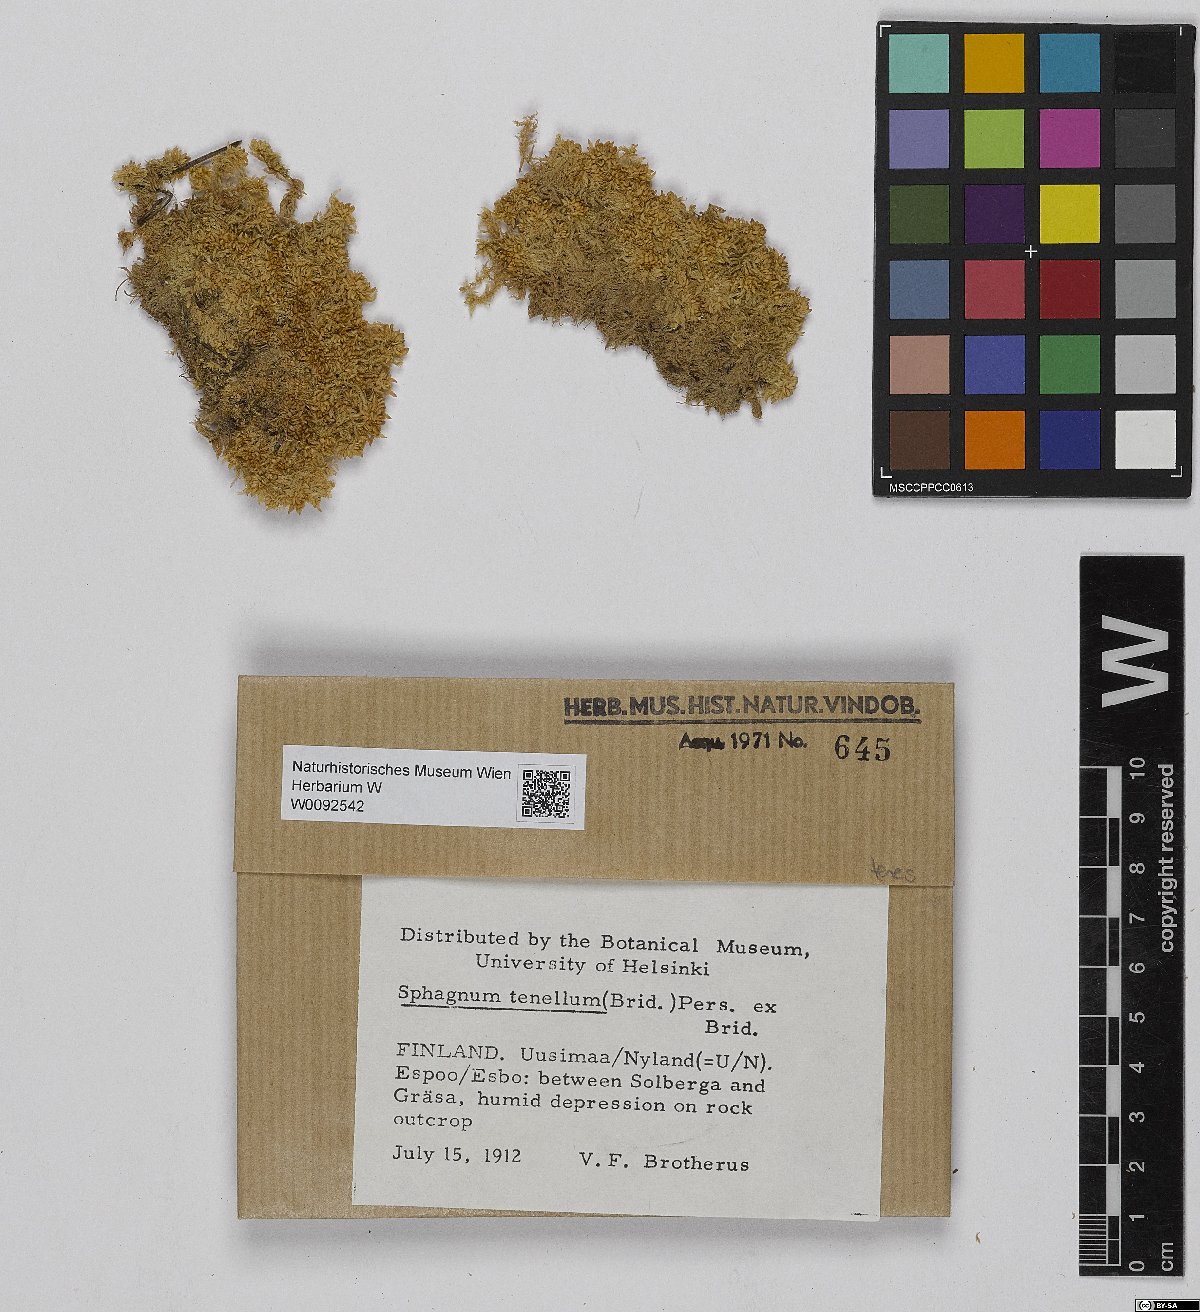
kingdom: Plantae
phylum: Bryophyta
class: Sphagnopsida
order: Sphagnales
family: Sphagnaceae
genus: Sphagnum
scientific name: Sphagnum teres
